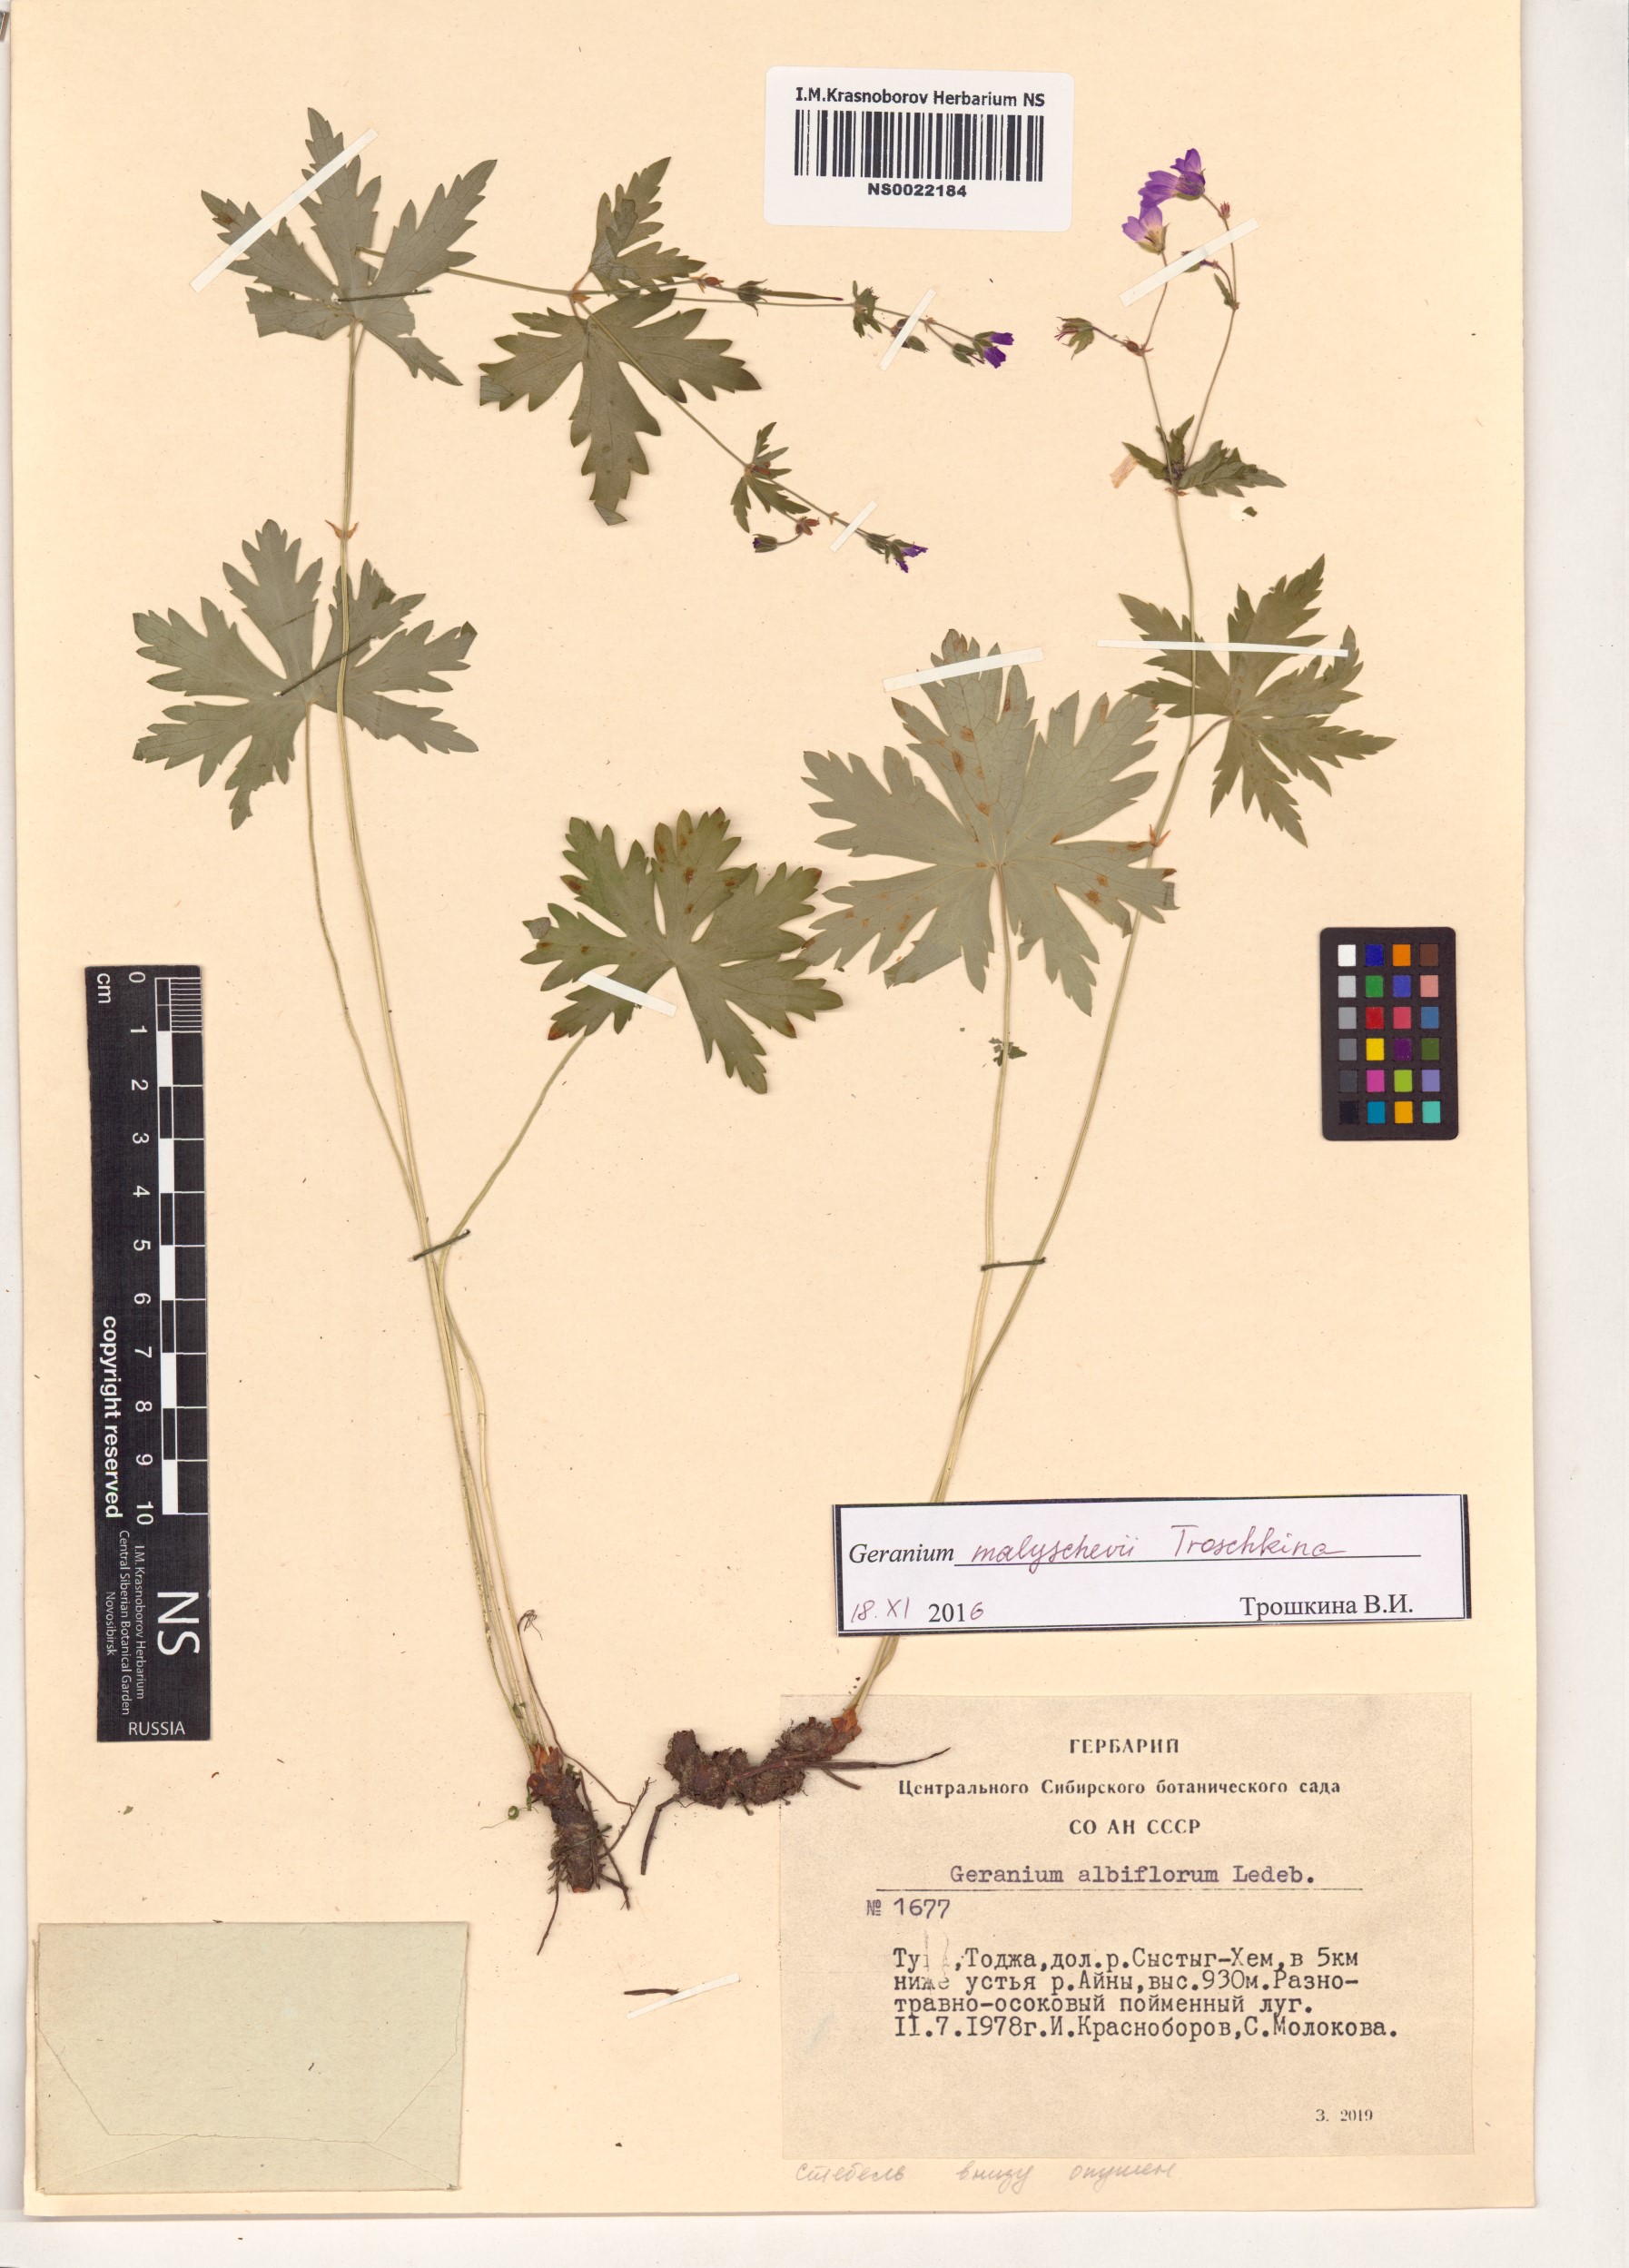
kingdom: Plantae
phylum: Tracheophyta
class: Magnoliopsida
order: Geraniales
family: Geraniaceae
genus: Geranium
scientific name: Geranium malyschevii
